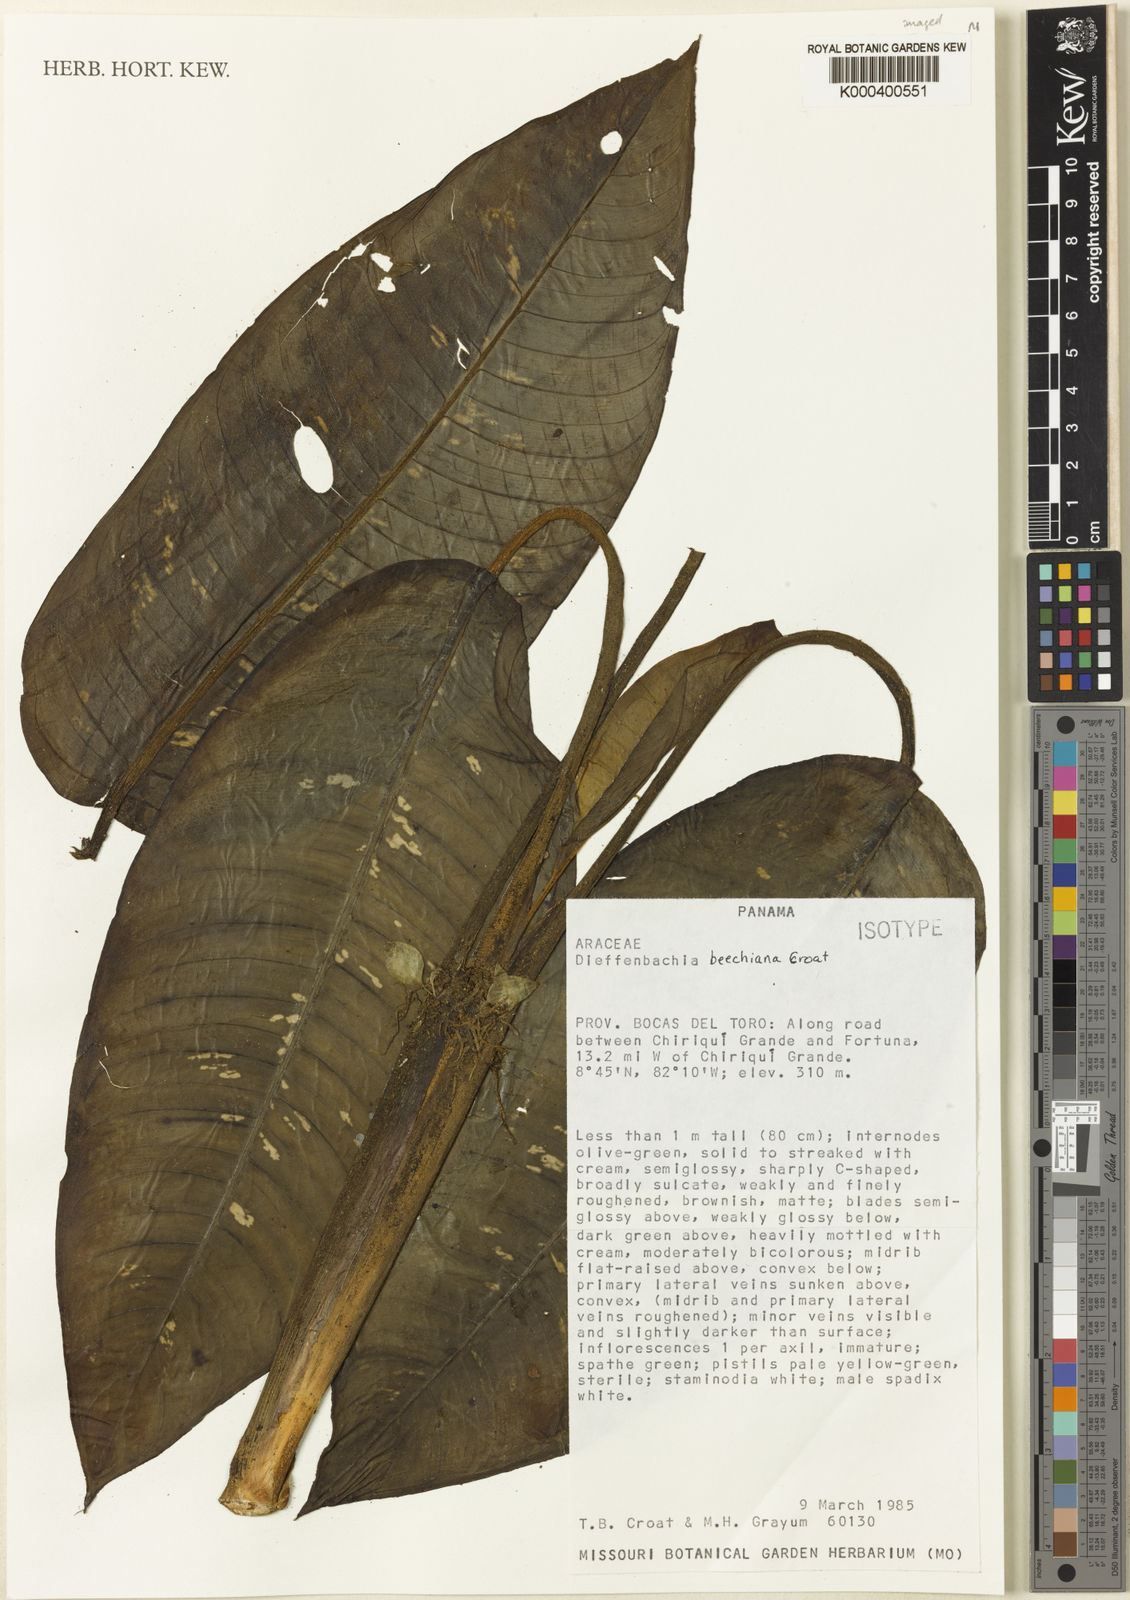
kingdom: Plantae
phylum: Tracheophyta
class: Liliopsida
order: Alismatales
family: Araceae
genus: Dieffenbachia
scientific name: Dieffenbachia
